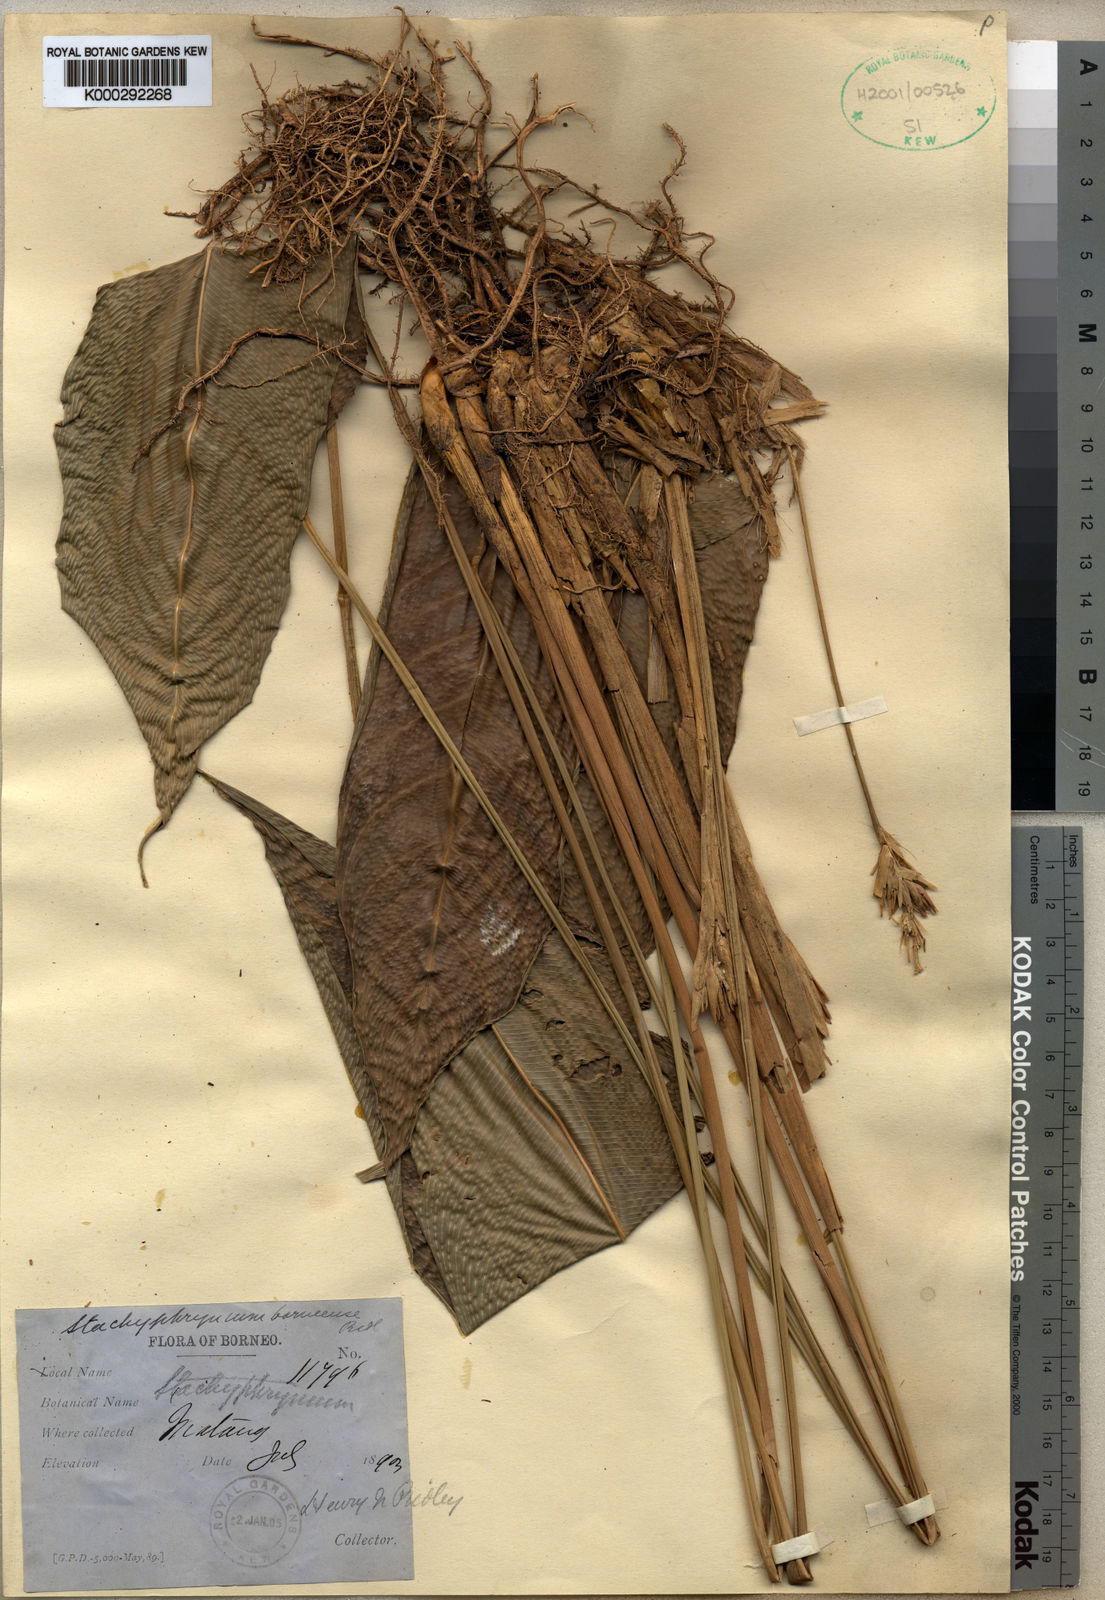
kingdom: Plantae
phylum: Tracheophyta
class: Liliopsida
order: Zingiberales
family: Marantaceae
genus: Stachyphrynium
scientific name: Stachyphrynium borneense
